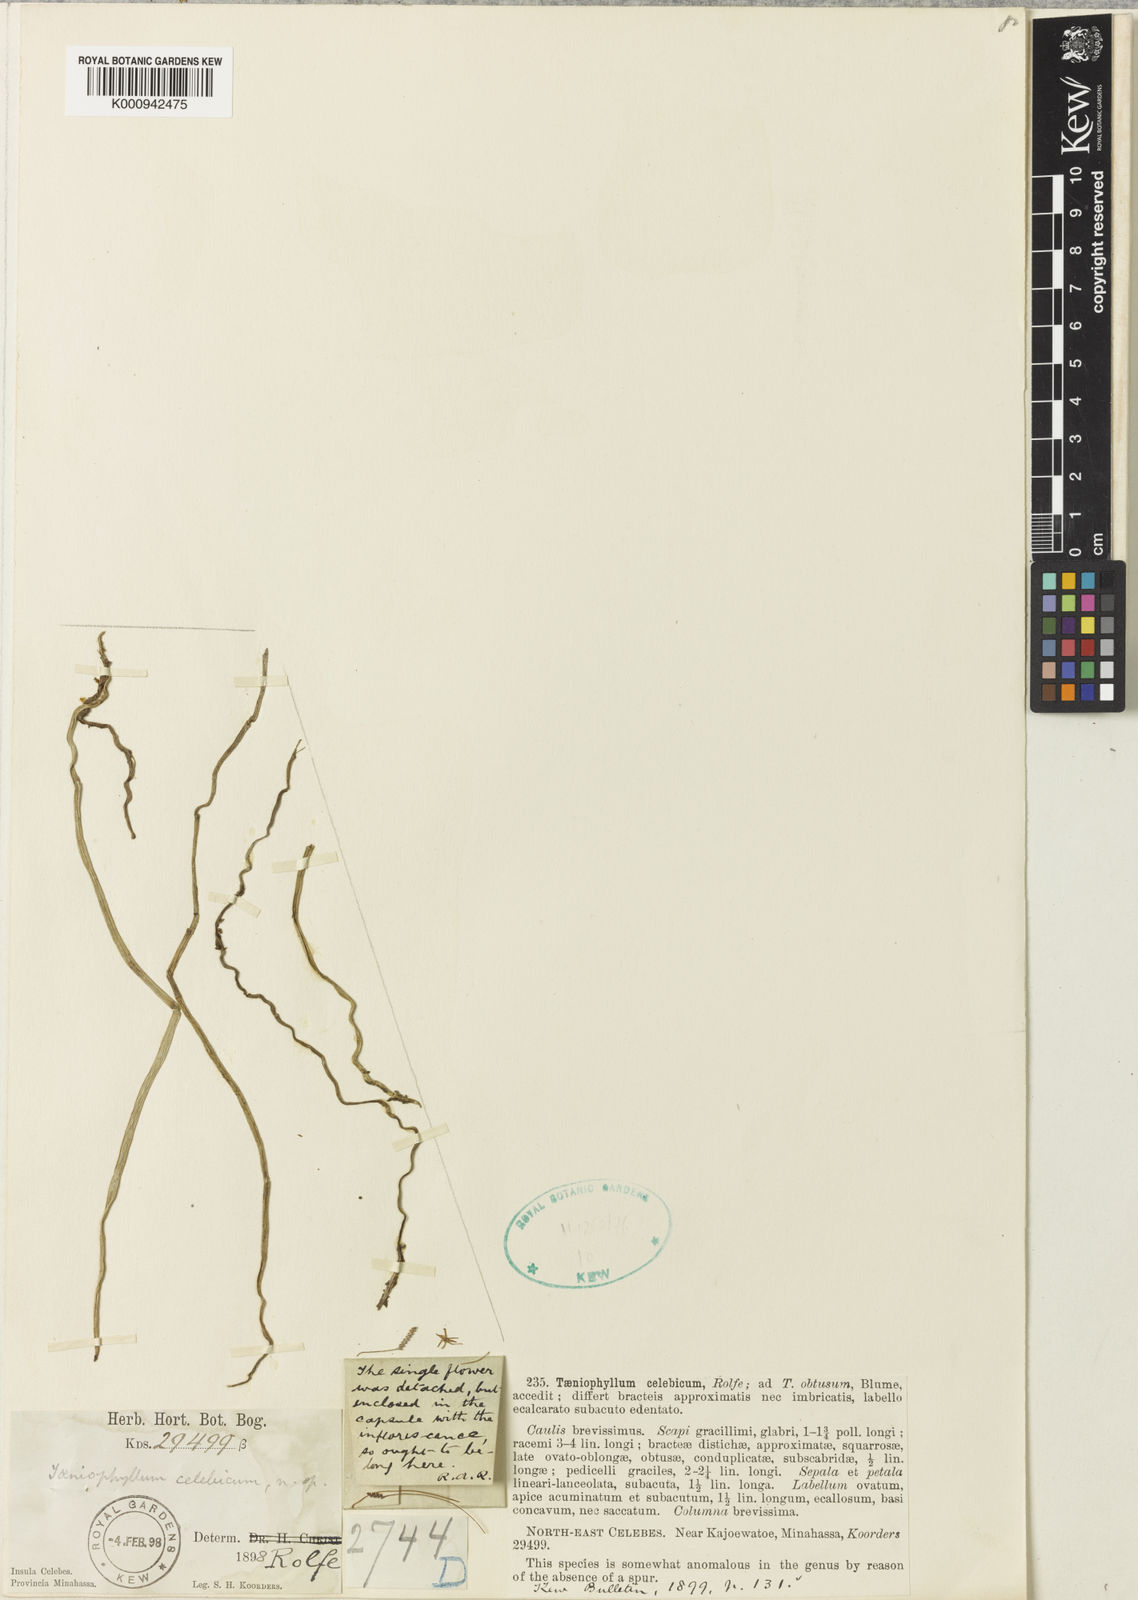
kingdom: Plantae
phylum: Tracheophyta
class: Liliopsida
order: Asparagales
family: Orchidaceae
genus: Taeniophyllum
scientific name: Taeniophyllum celebicum
